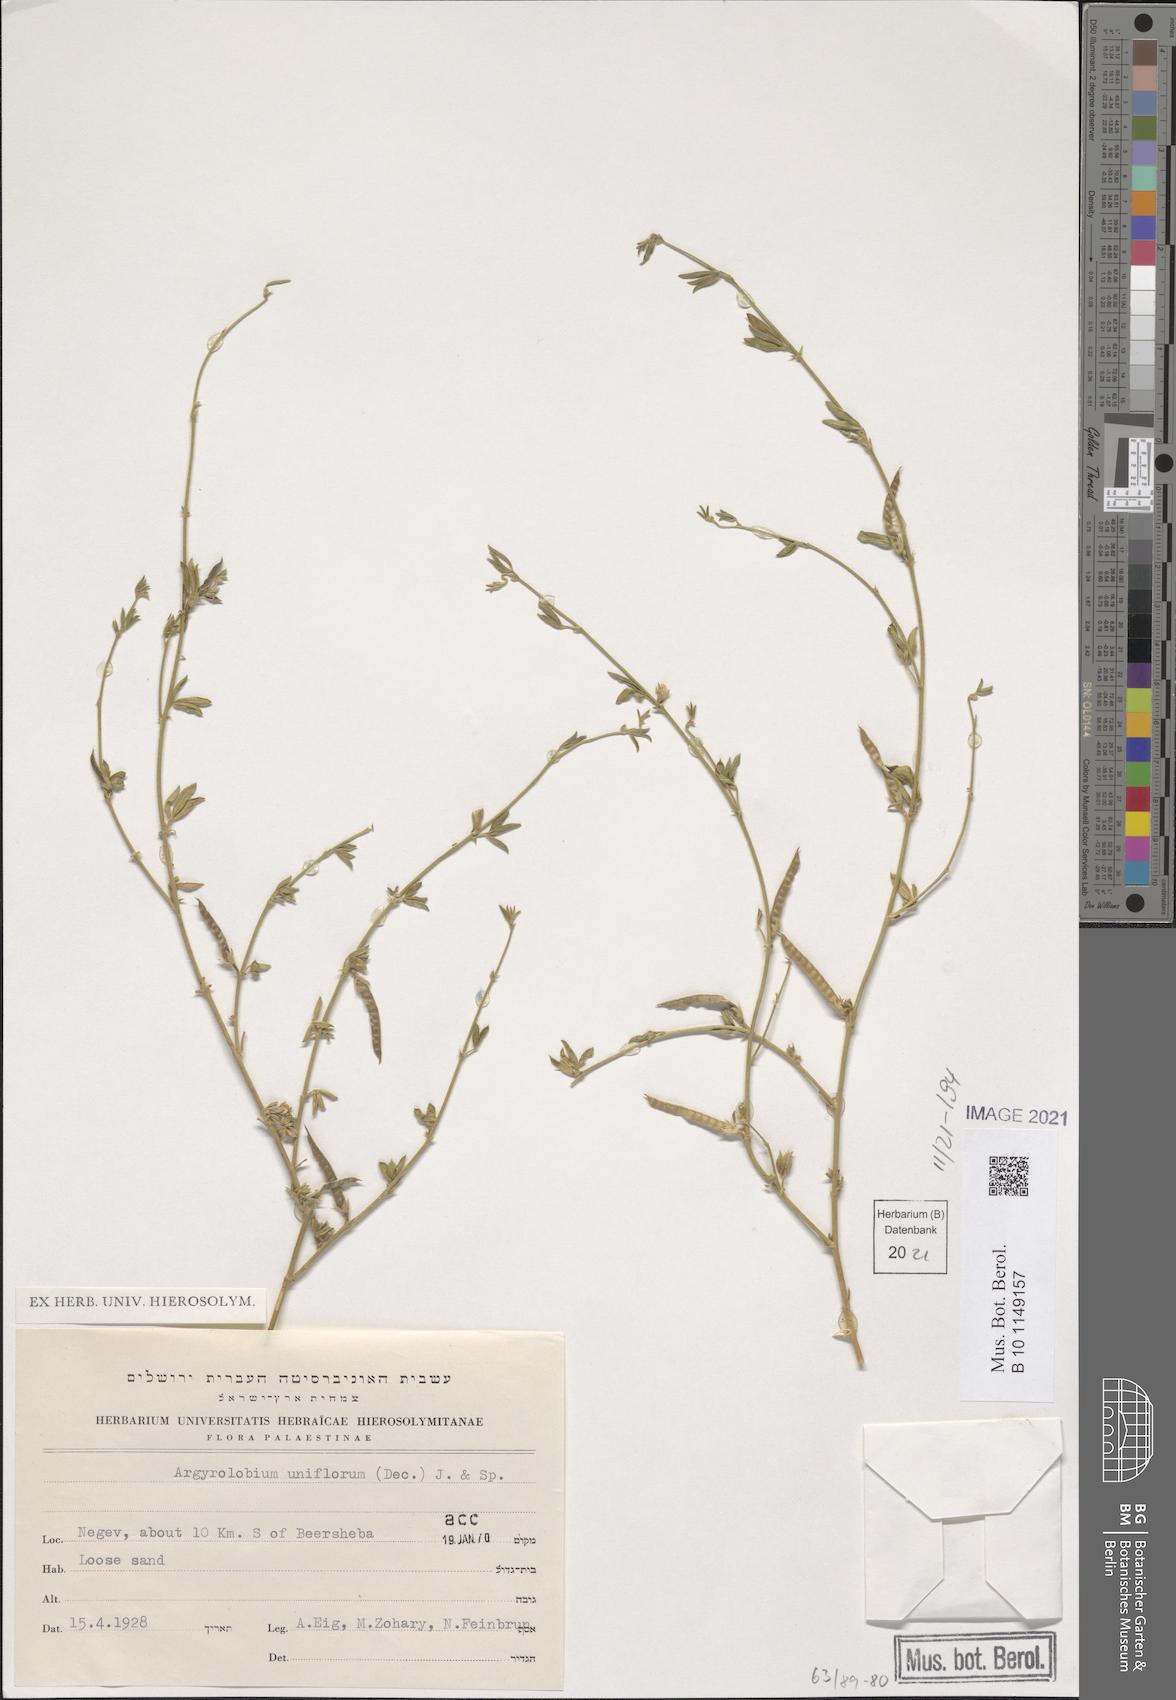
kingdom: Plantae
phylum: Tracheophyta
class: Magnoliopsida
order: Fabales
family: Fabaceae
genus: Argyrolobium
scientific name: Argyrolobium uniflorum
